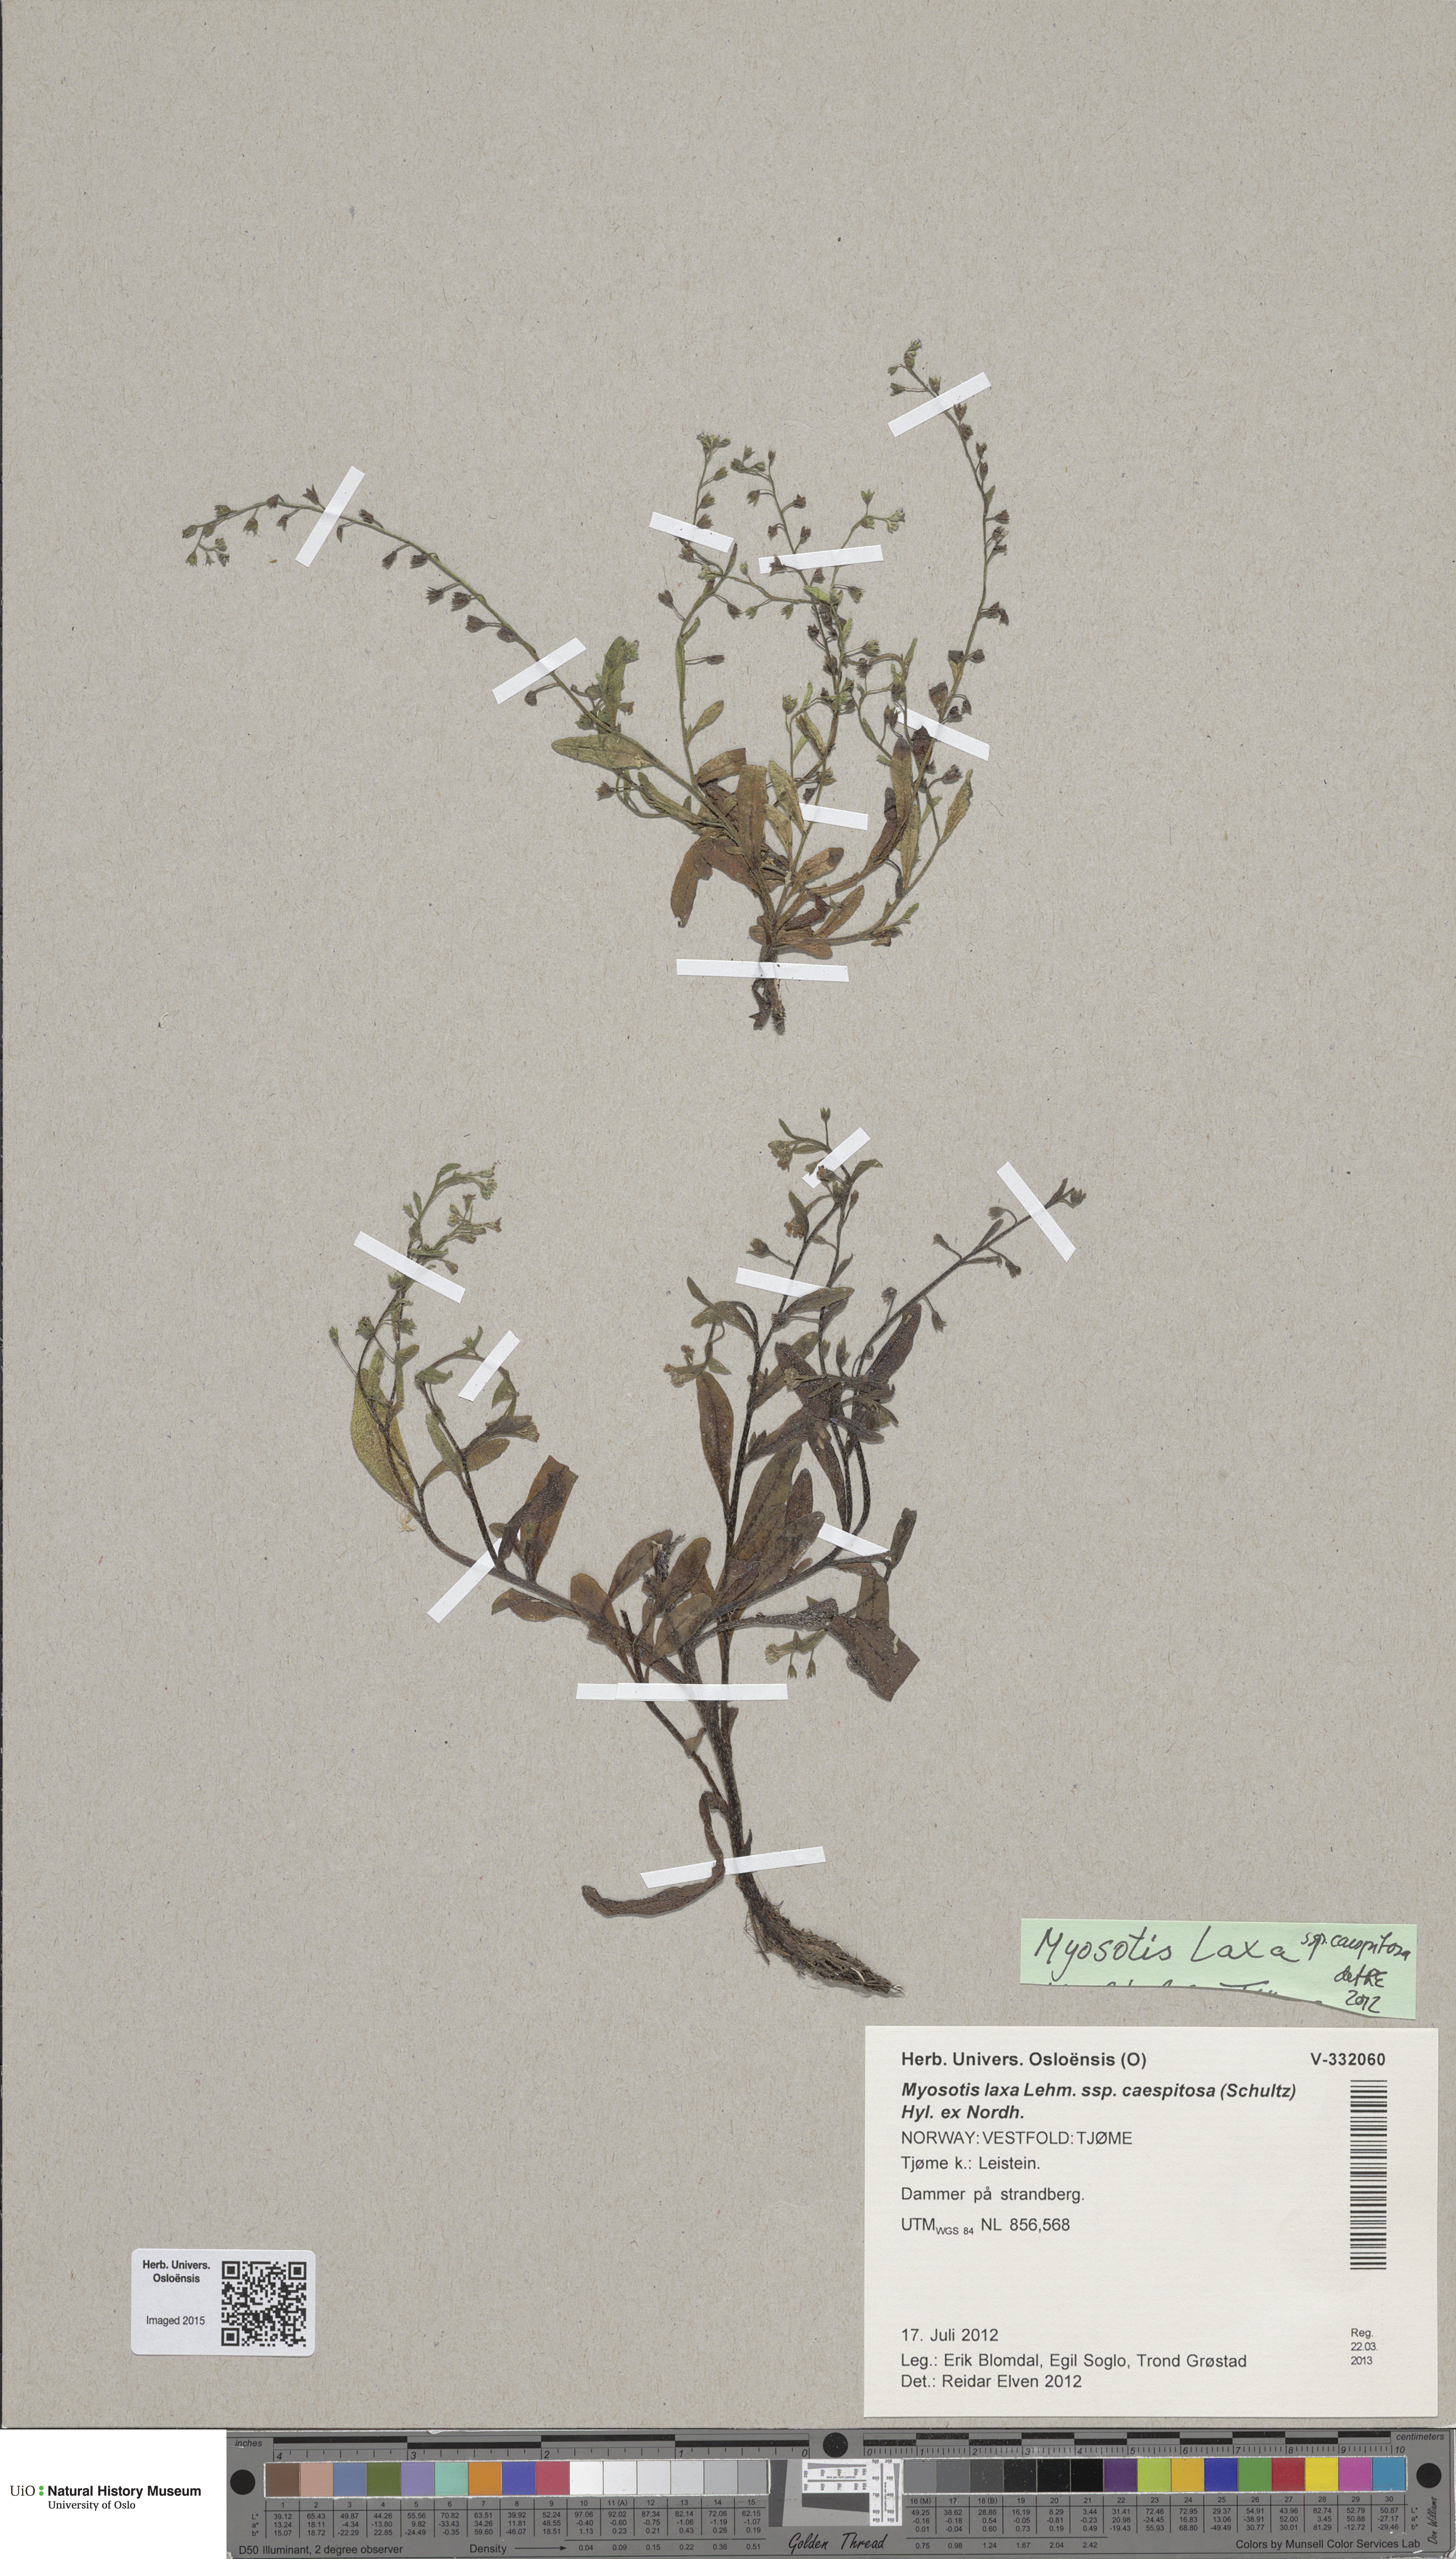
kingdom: Plantae
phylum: Tracheophyta
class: Magnoliopsida
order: Boraginales
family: Boraginaceae
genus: Myosotis
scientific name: Myosotis laxa
